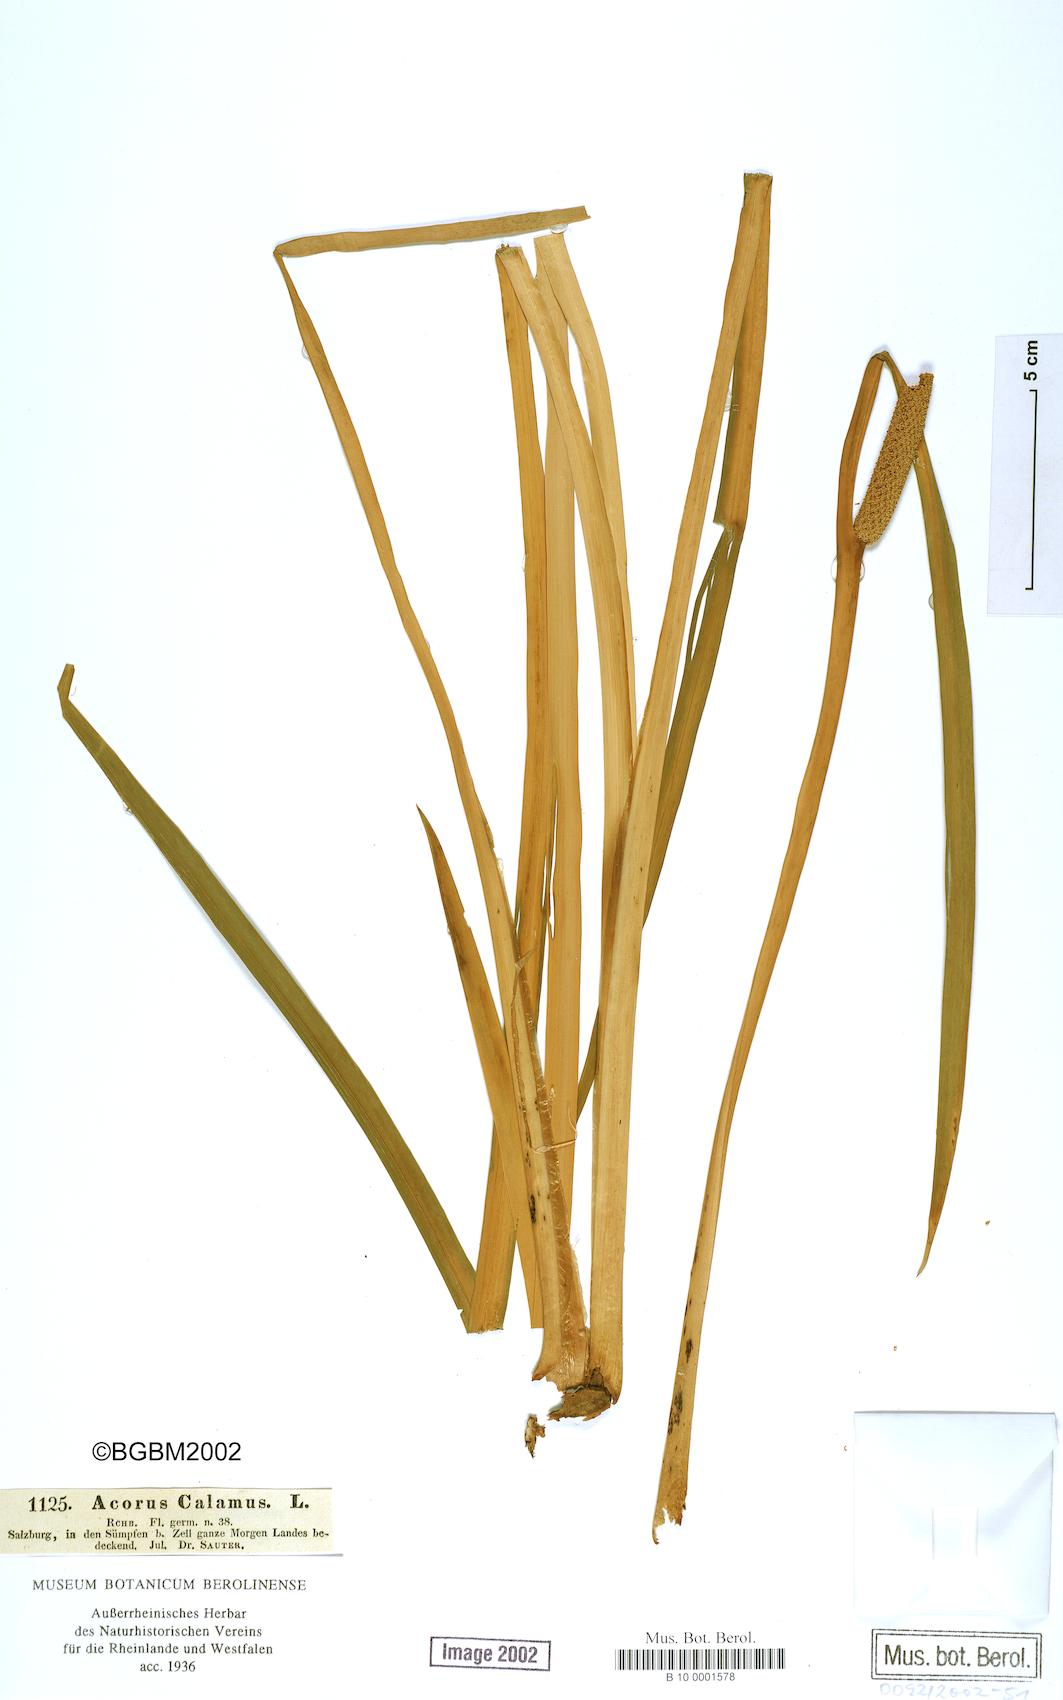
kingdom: Plantae
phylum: Tracheophyta
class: Liliopsida
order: Acorales
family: Acoraceae
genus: Acorus
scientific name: Acorus calamus
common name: Sweet-flag
